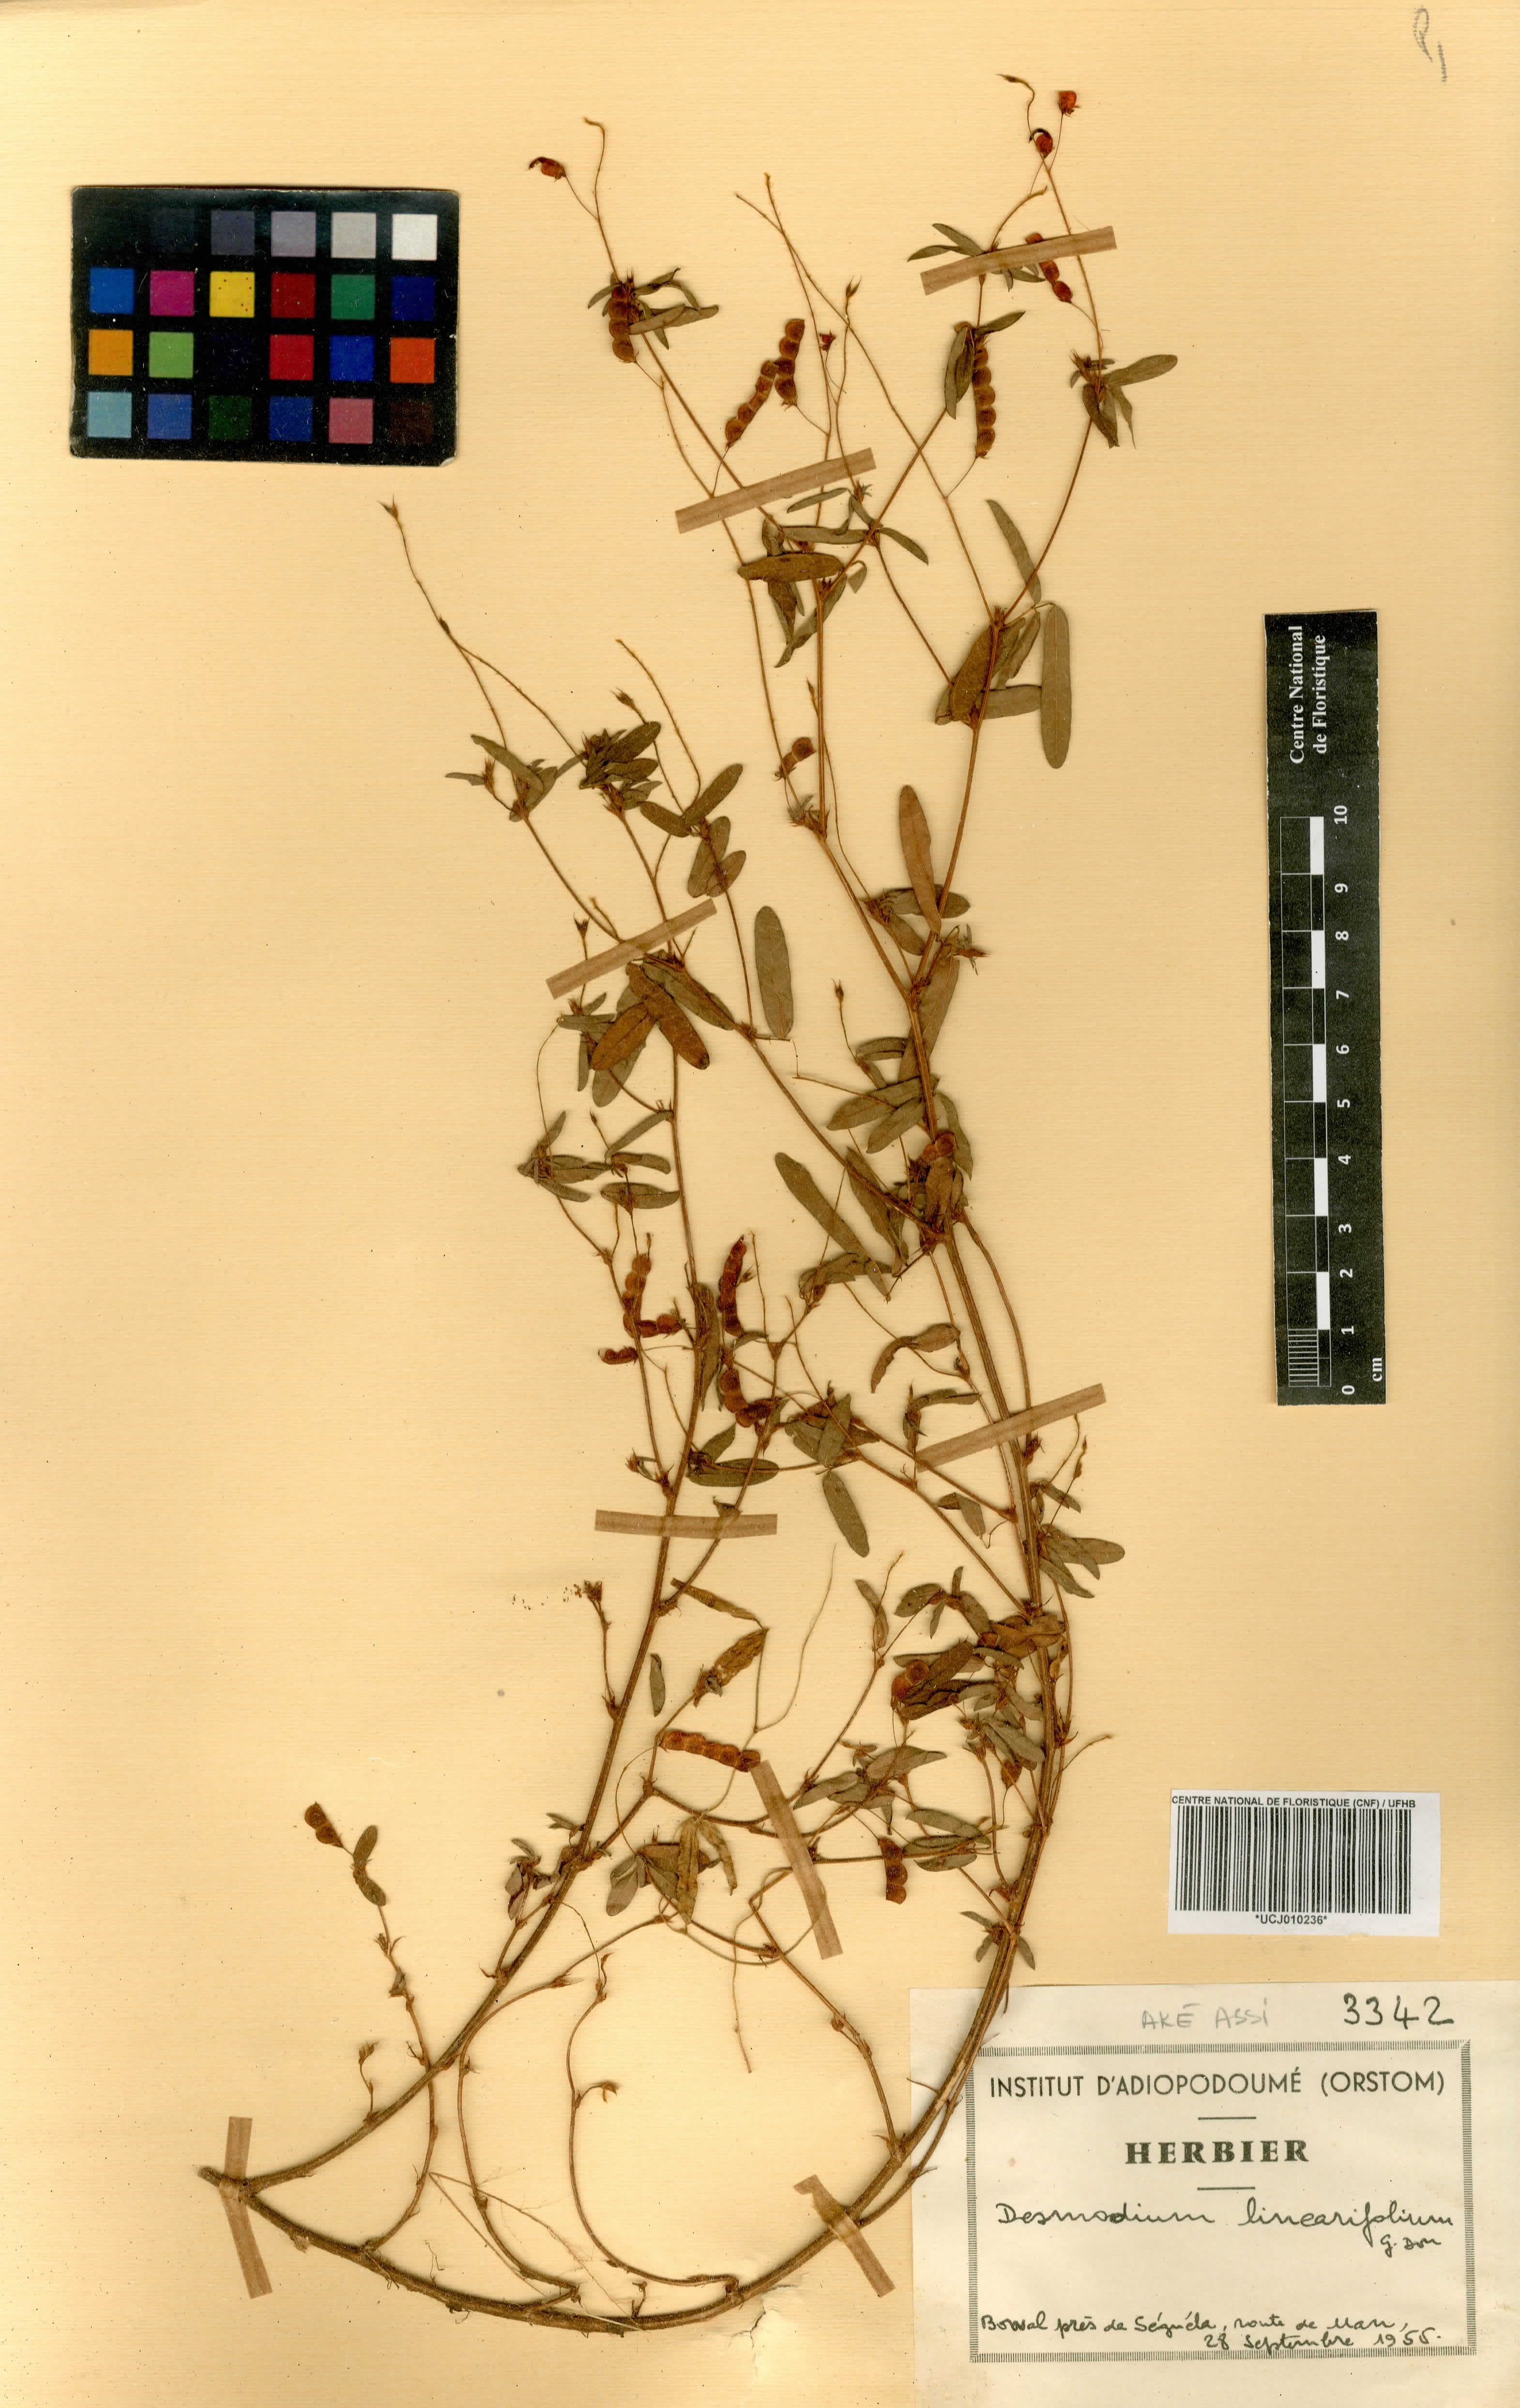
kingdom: Plantae
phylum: Tracheophyta
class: Magnoliopsida
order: Fabales
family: Fabaceae
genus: Desmodium
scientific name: Desmodium linearifolium
